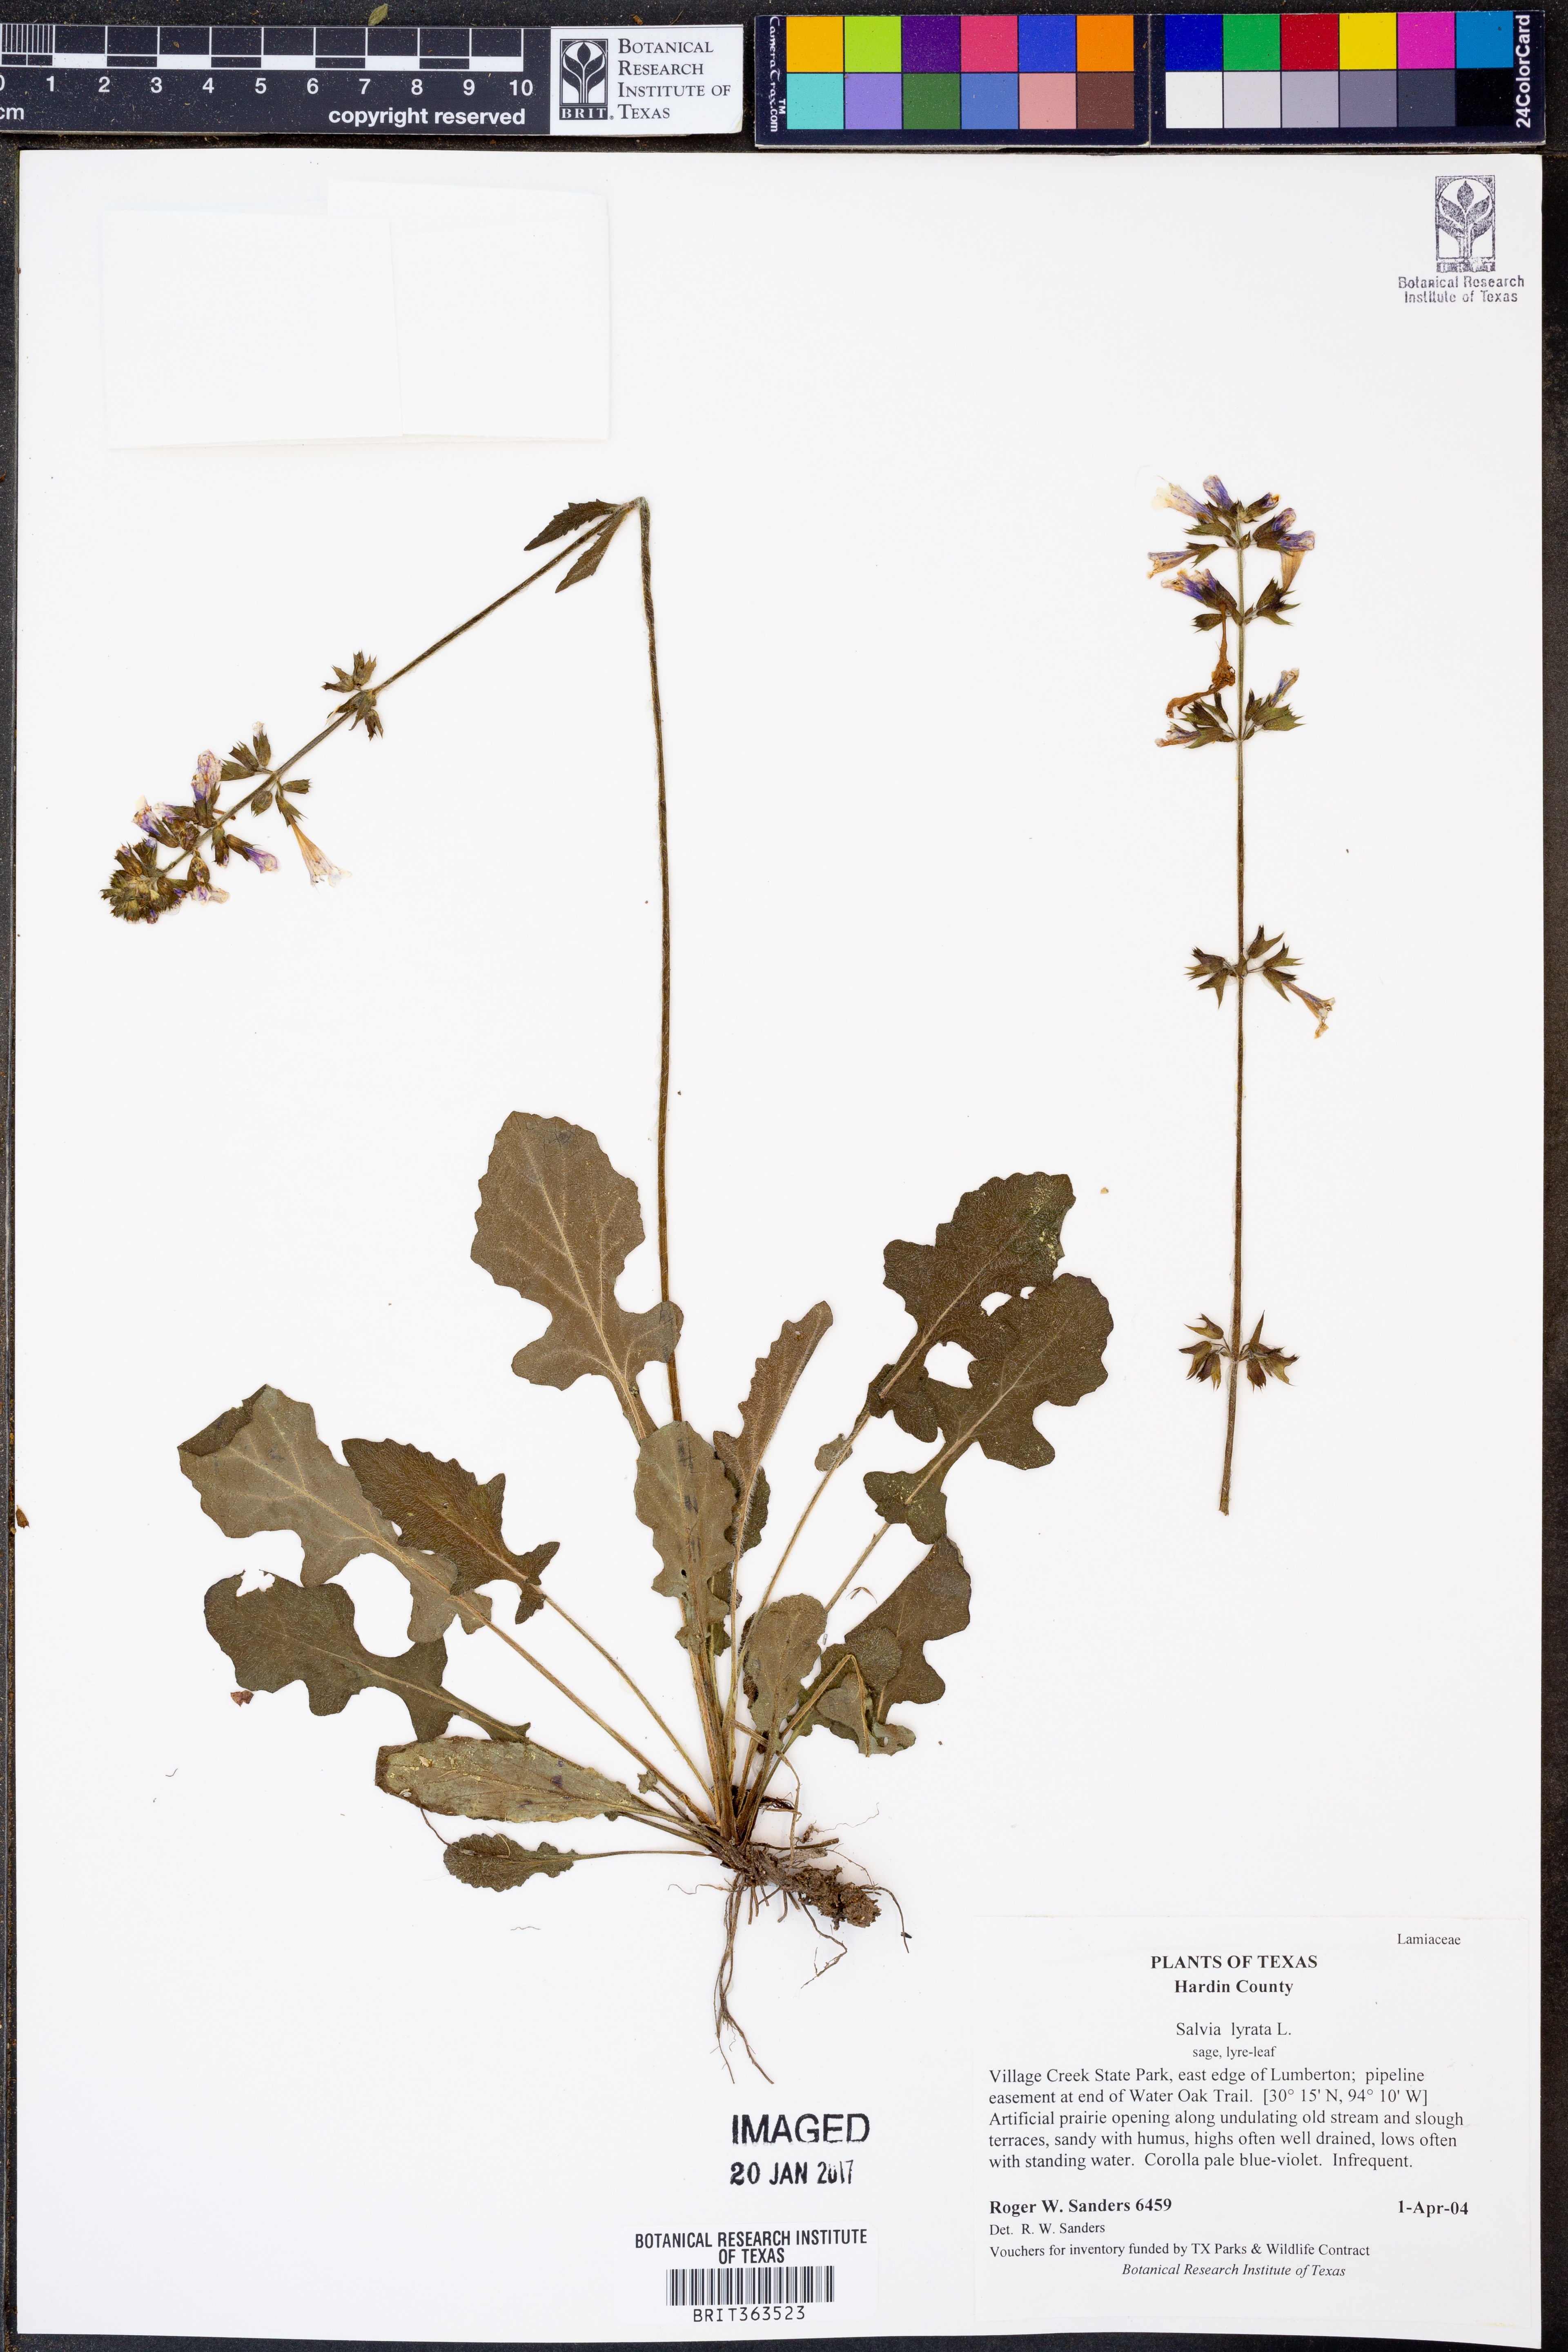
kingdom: Plantae
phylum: Tracheophyta
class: Magnoliopsida
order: Lamiales
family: Lamiaceae
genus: Salvia
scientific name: Salvia lyrata
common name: Cancerweed
